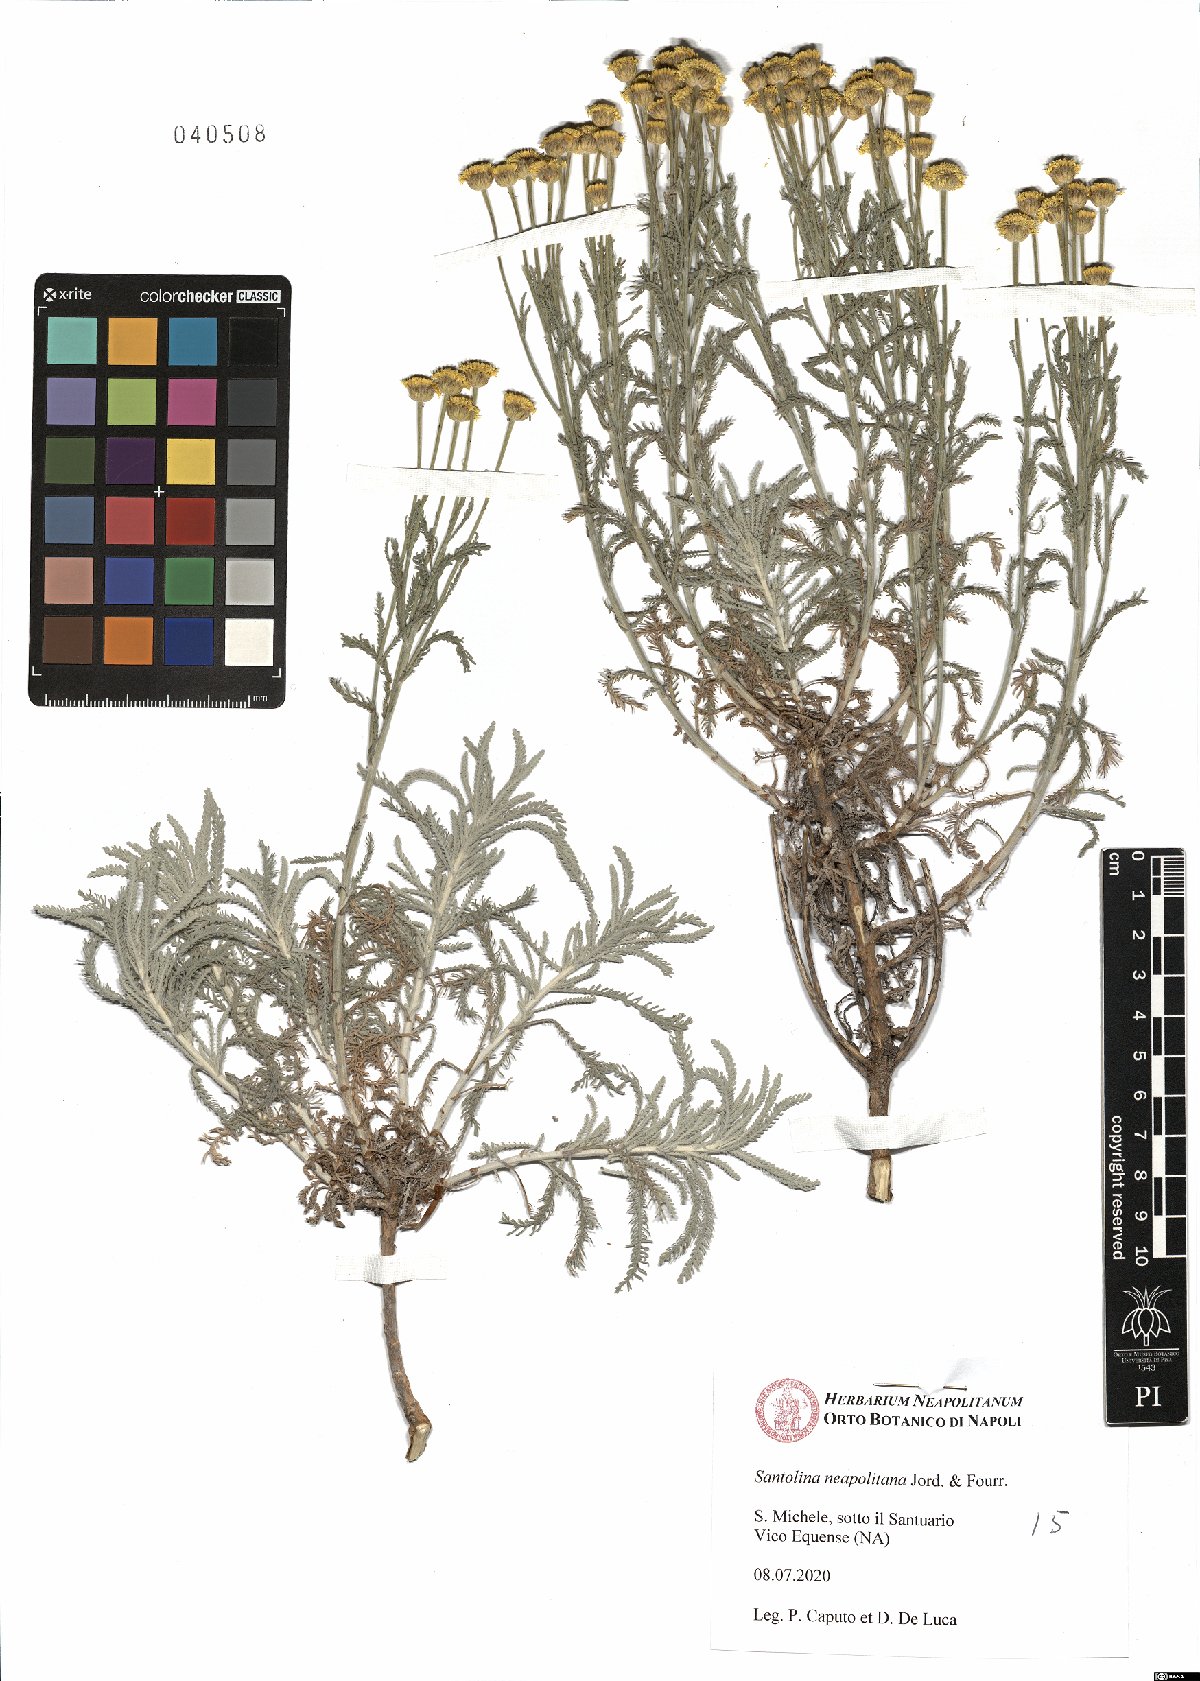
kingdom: Plantae
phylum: Tracheophyta
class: Magnoliopsida
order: Asterales
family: Asteraceae
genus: Santolina
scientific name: Santolina neapolitana
